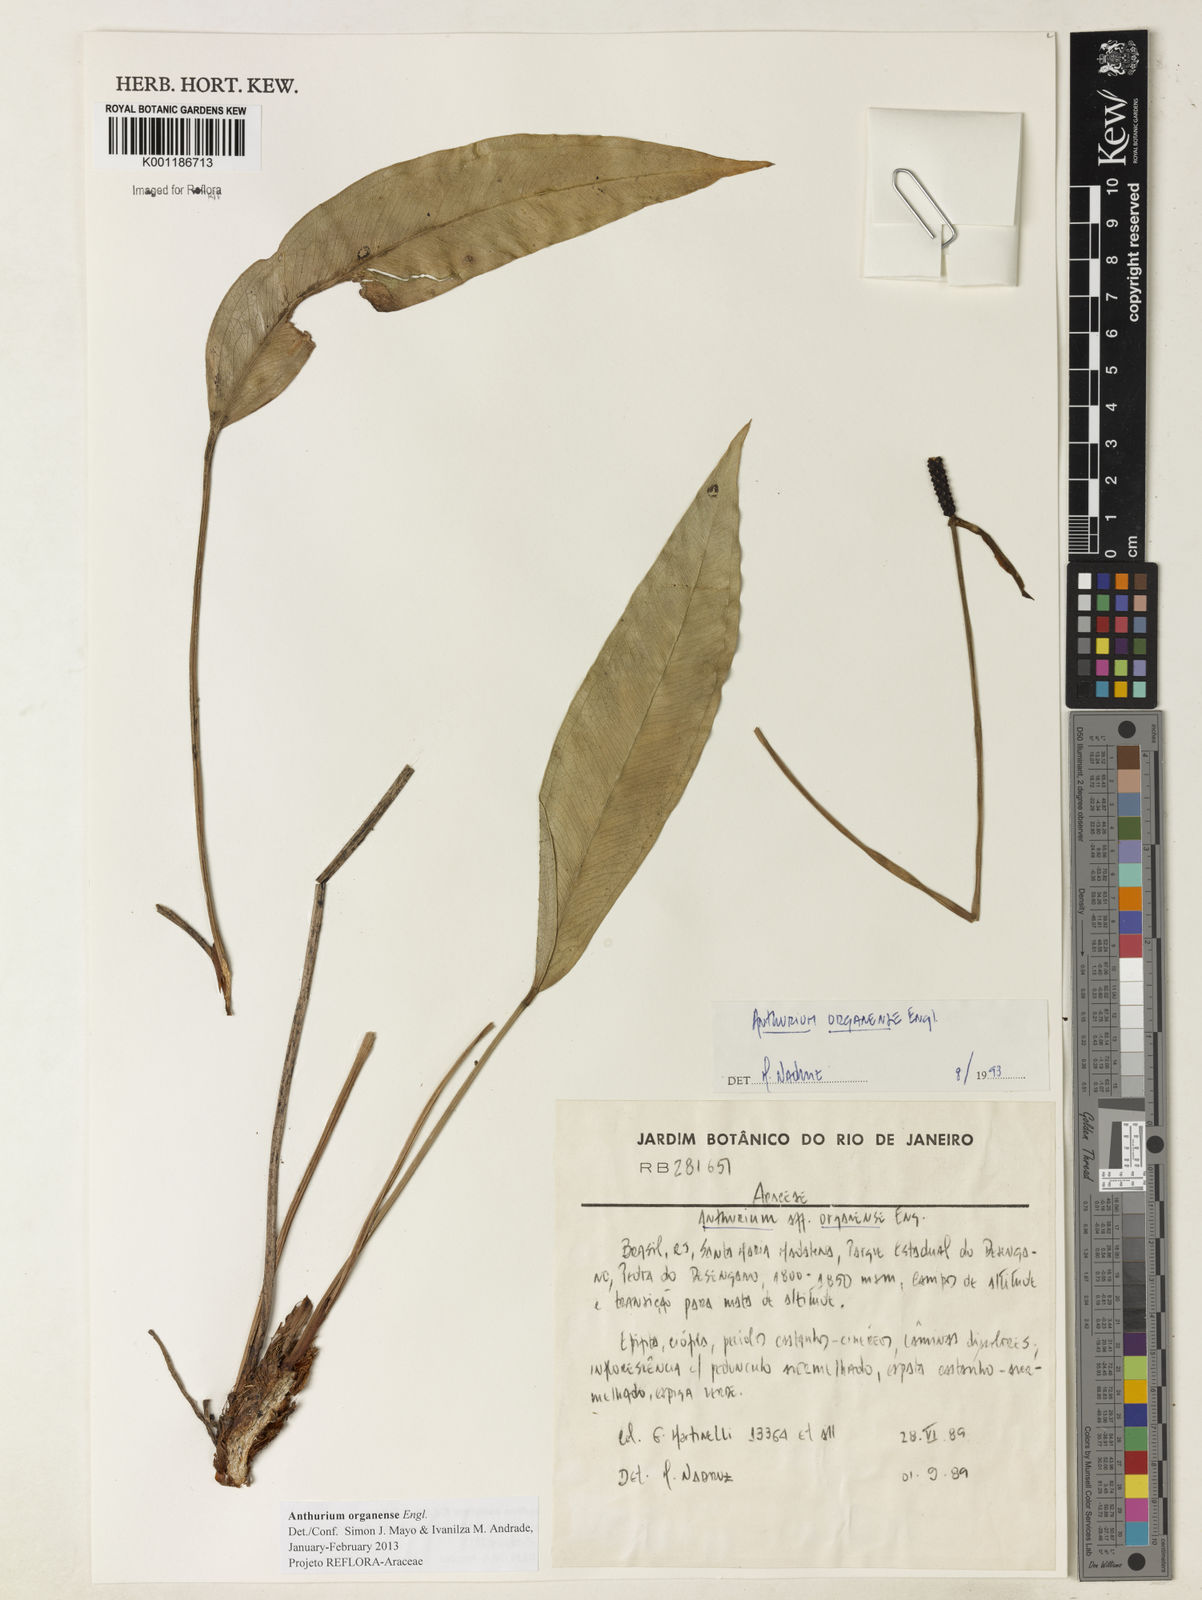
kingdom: Plantae
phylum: Tracheophyta
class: Liliopsida
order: Alismatales
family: Araceae
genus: Anthurium
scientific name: Anthurium organense
